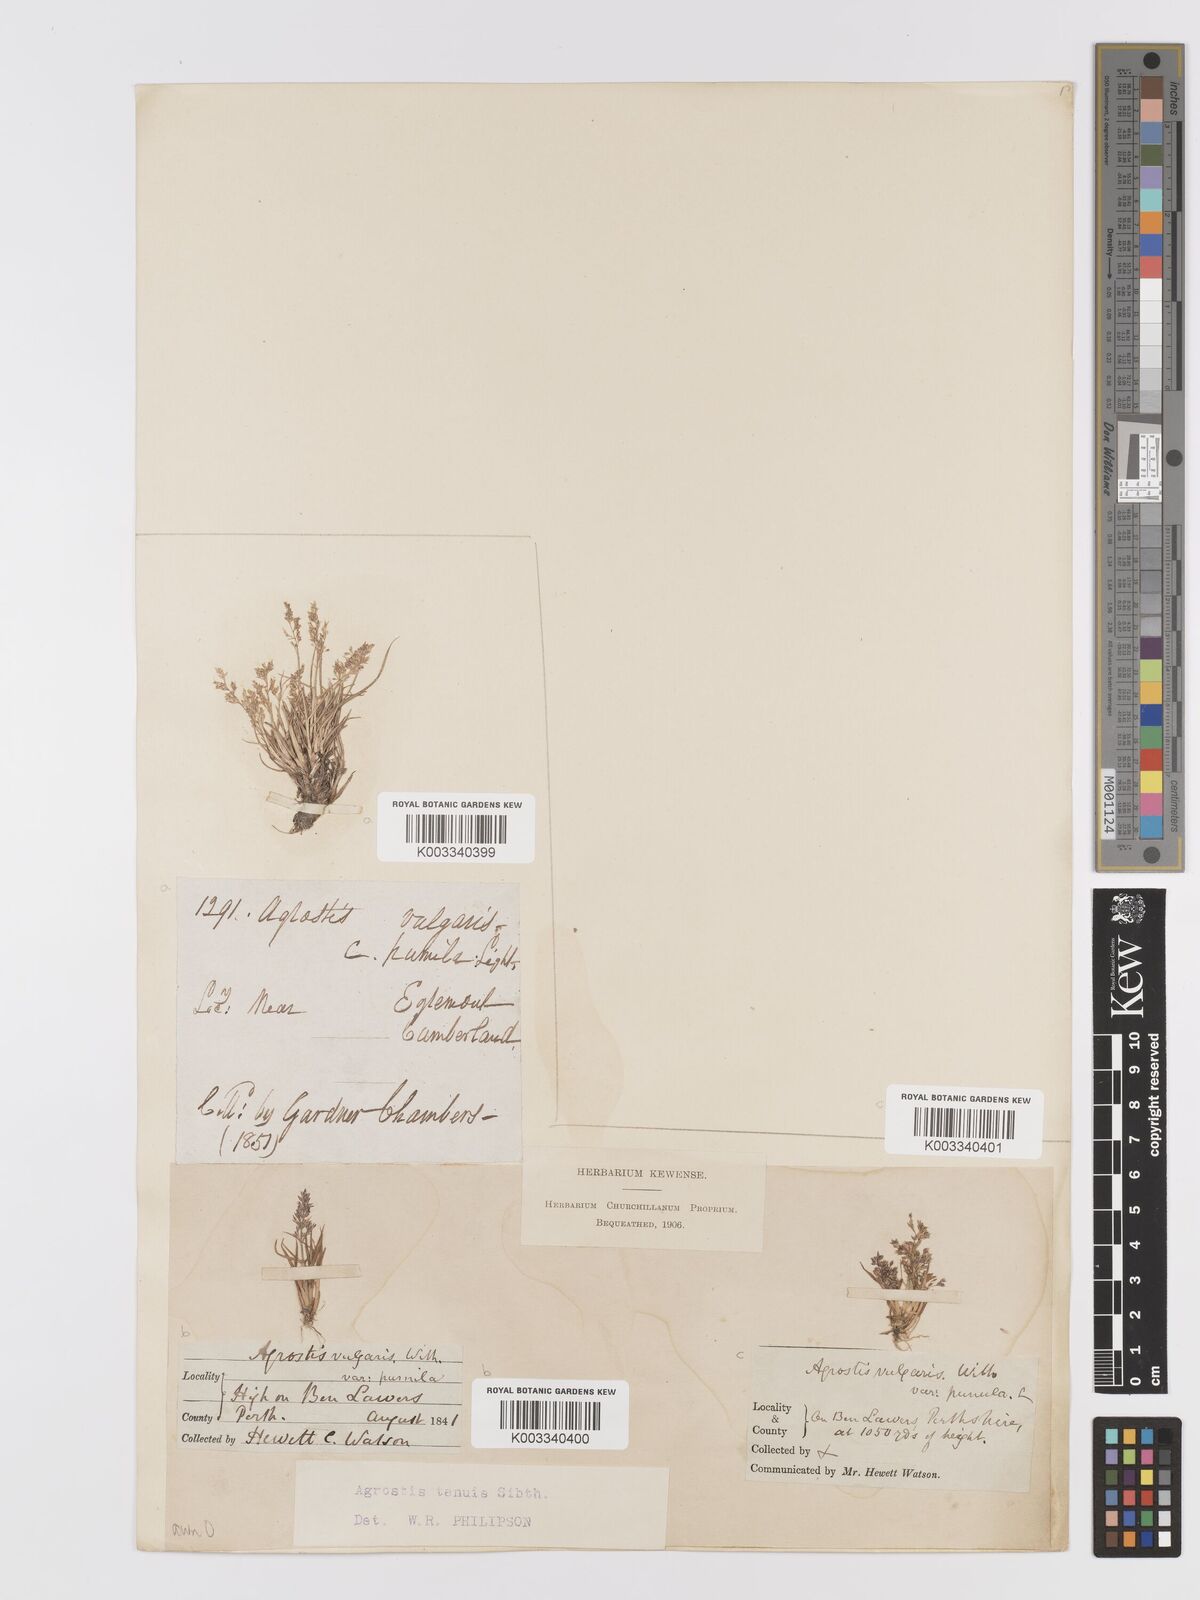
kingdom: Plantae
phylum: Tracheophyta
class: Liliopsida
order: Poales
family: Poaceae
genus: Agrostis
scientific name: Agrostis capillaris
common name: Colonial bentgrass
